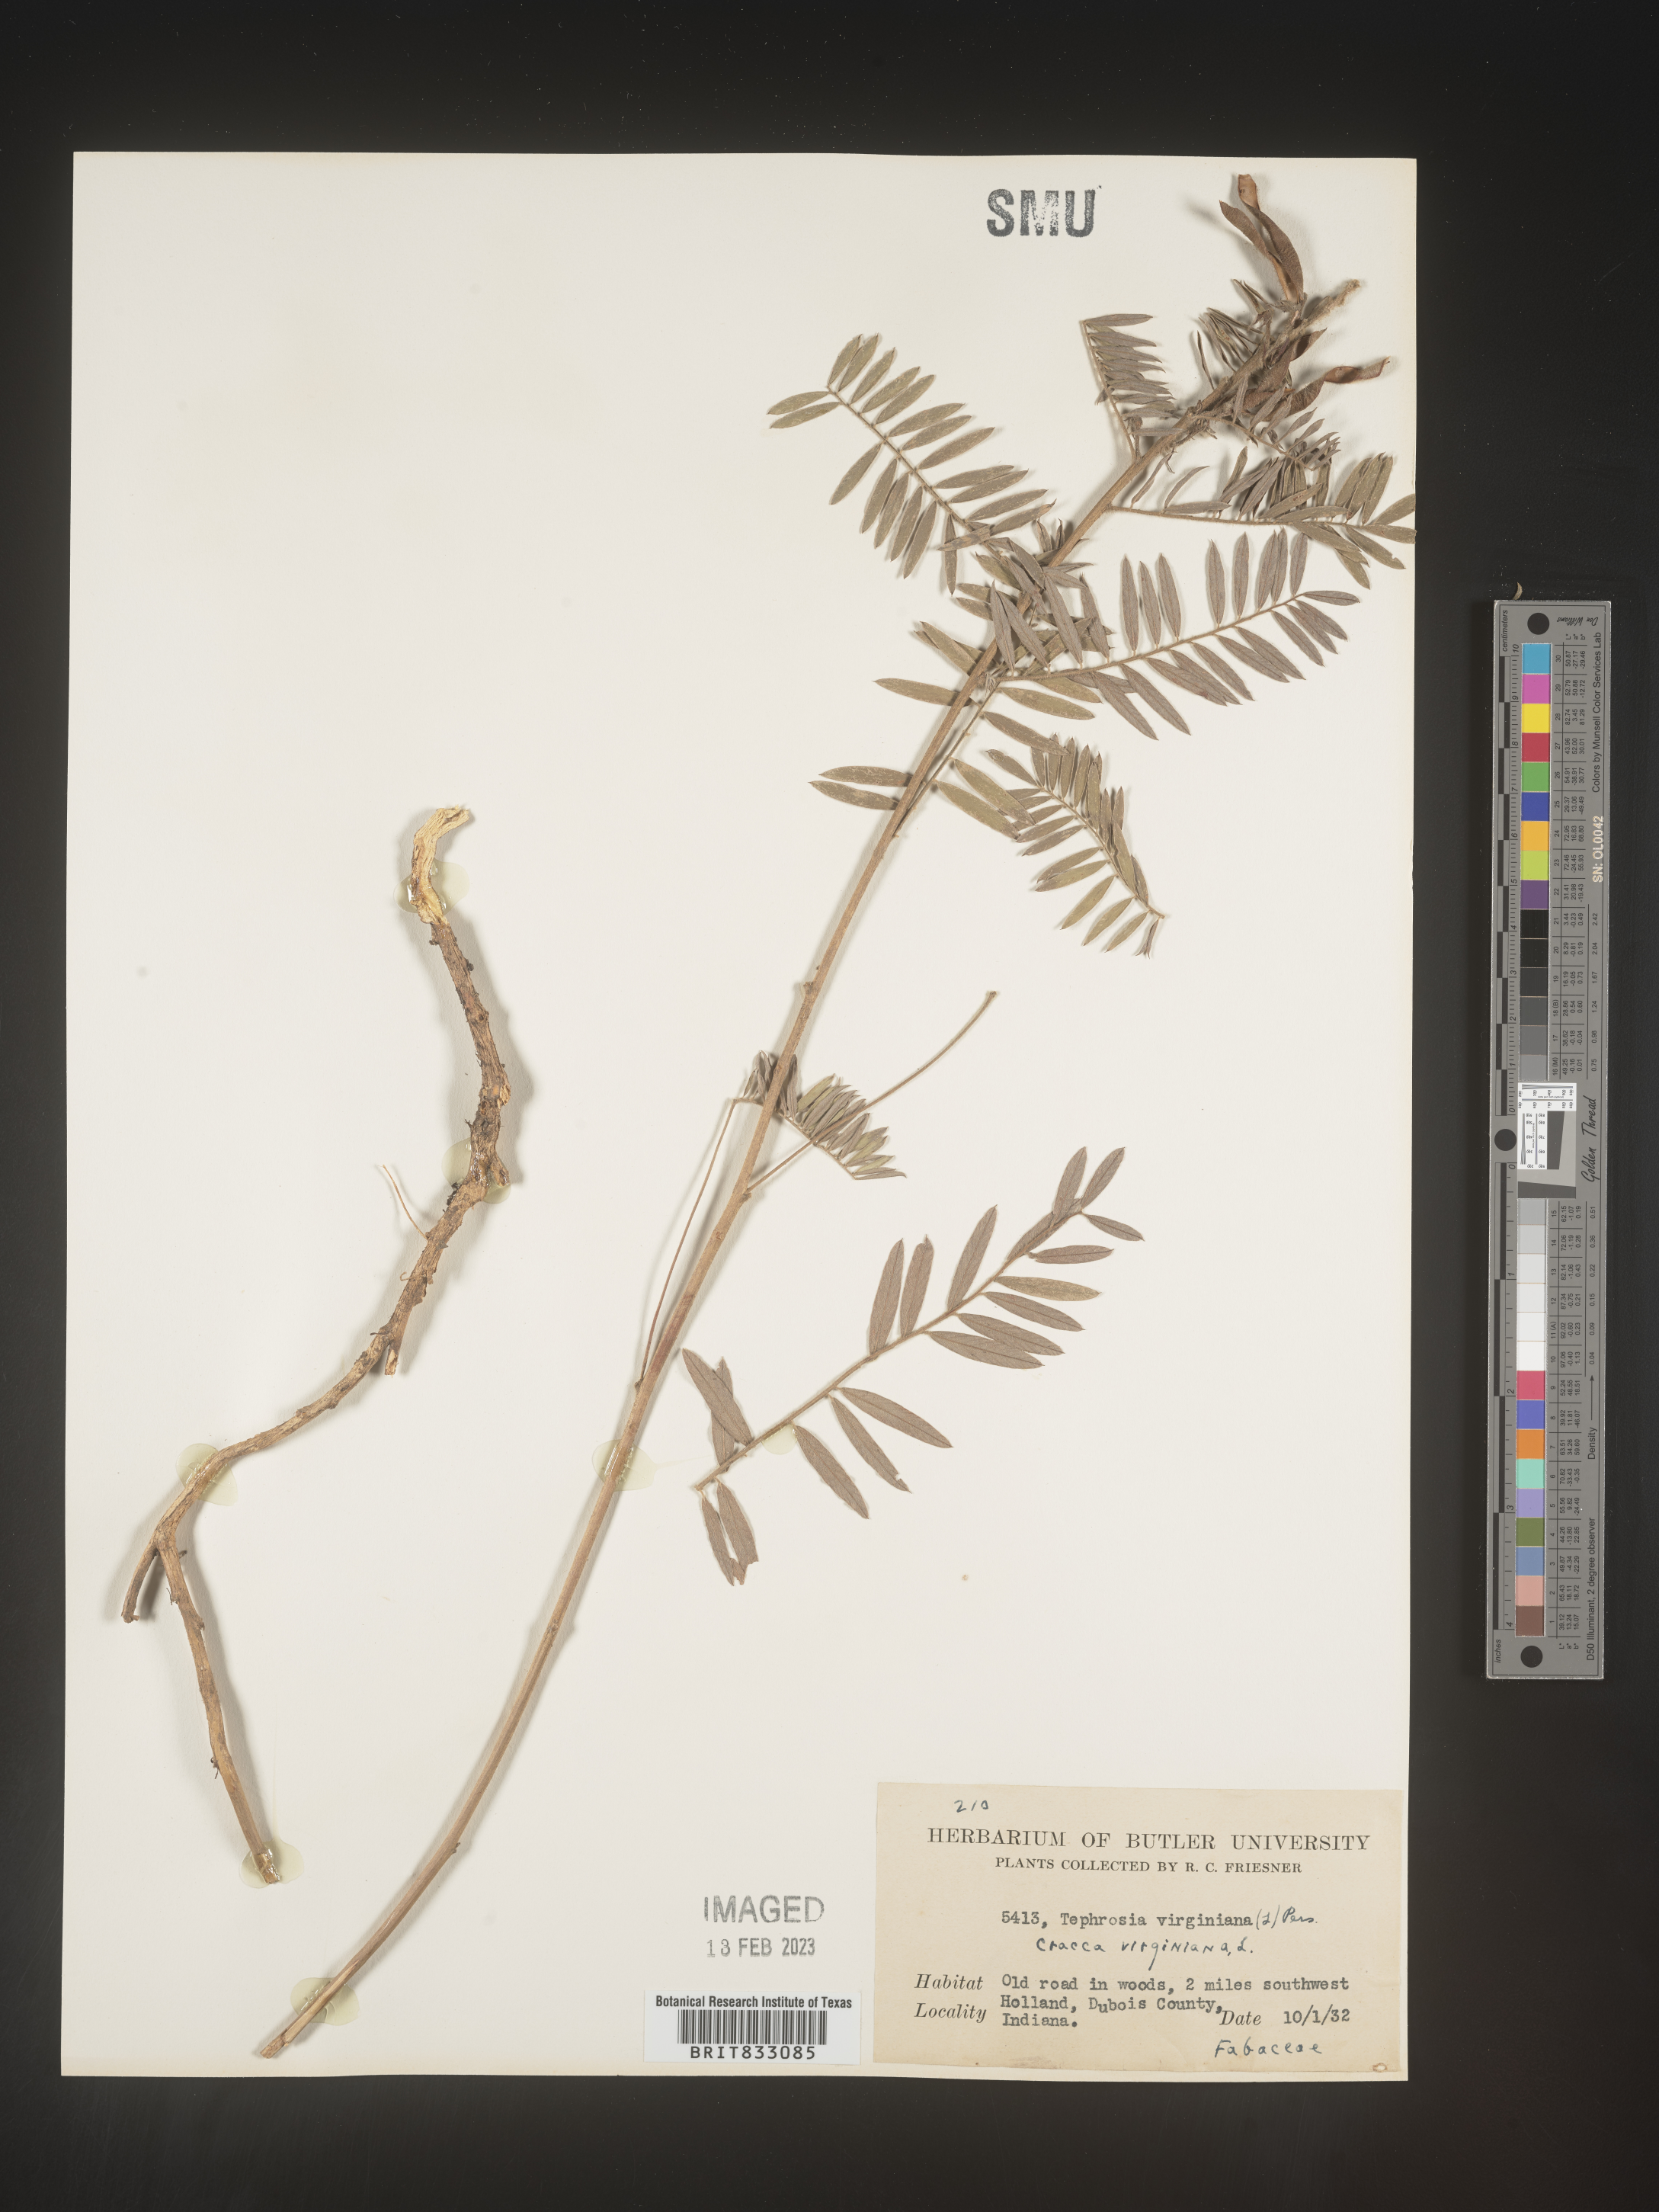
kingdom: Plantae
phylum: Tracheophyta
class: Magnoliopsida
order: Fabales
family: Fabaceae
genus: Tephrosia
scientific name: Tephrosia virginiana
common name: Rabbit-pea
